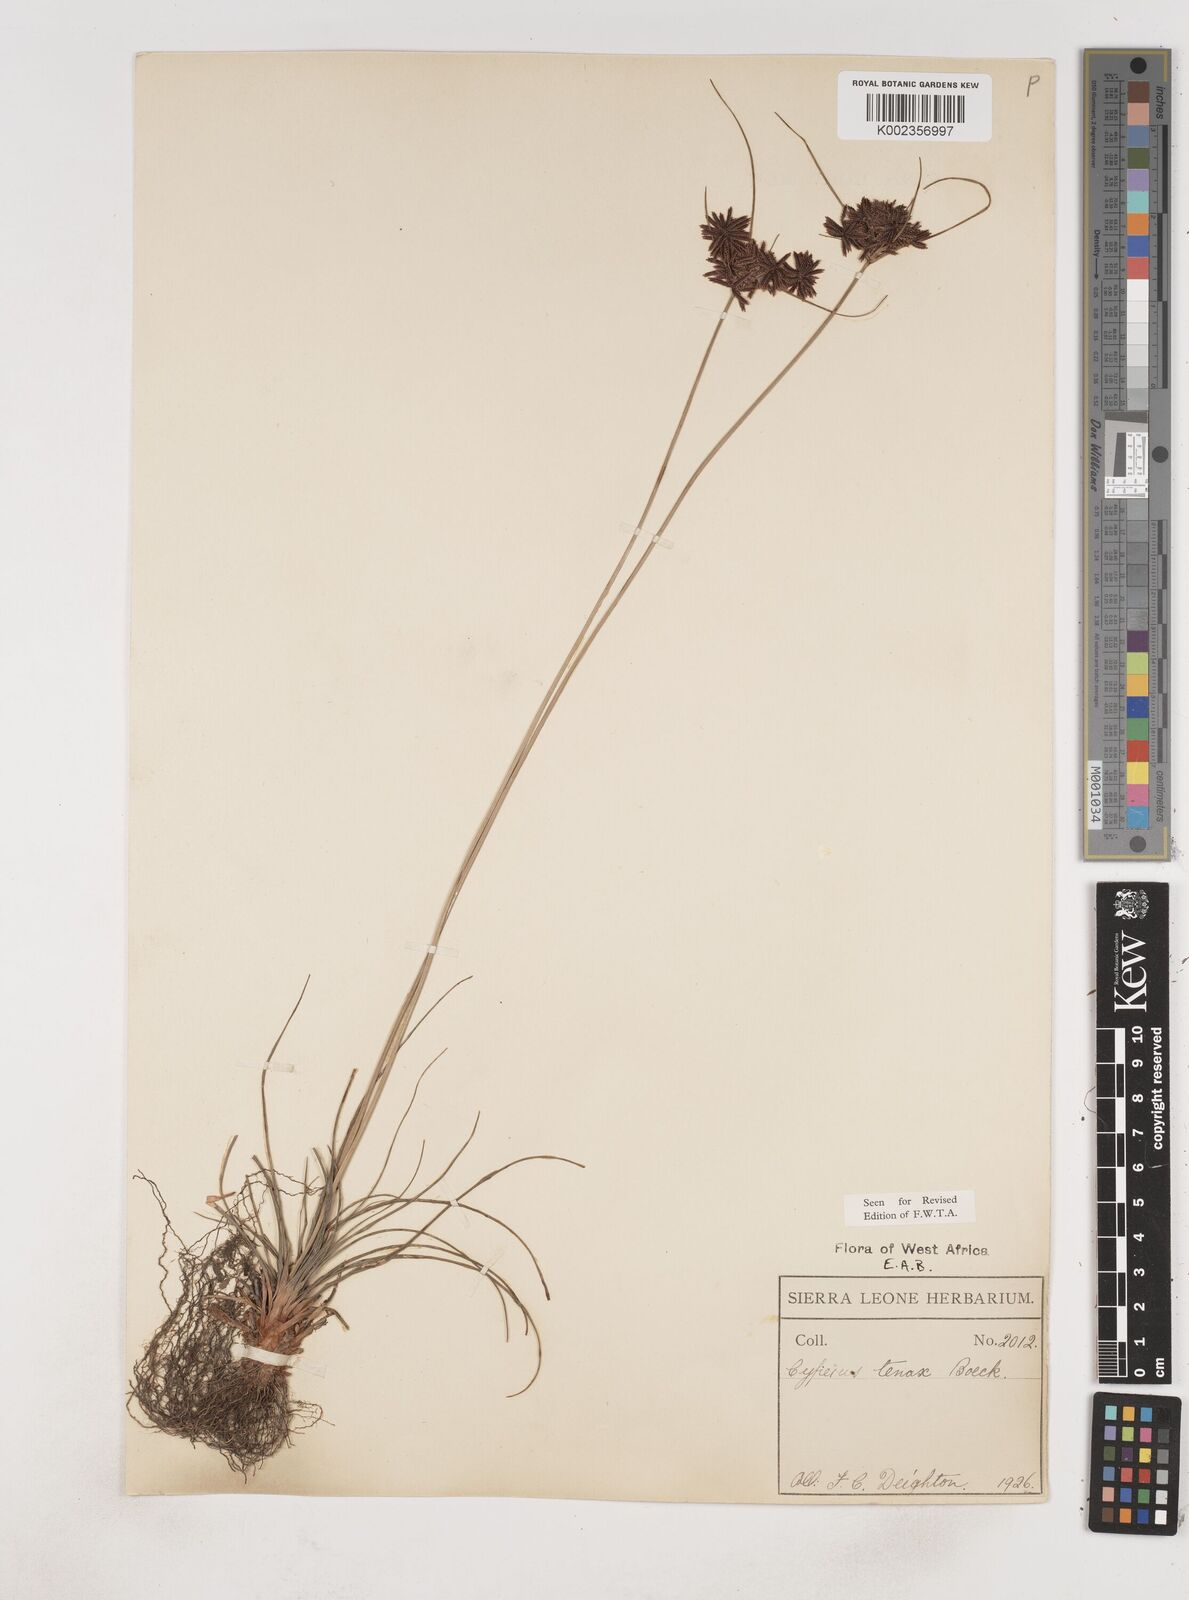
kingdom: Plantae
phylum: Tracheophyta
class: Liliopsida
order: Poales
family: Cyperaceae
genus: Cyperus
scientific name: Cyperus tenax
